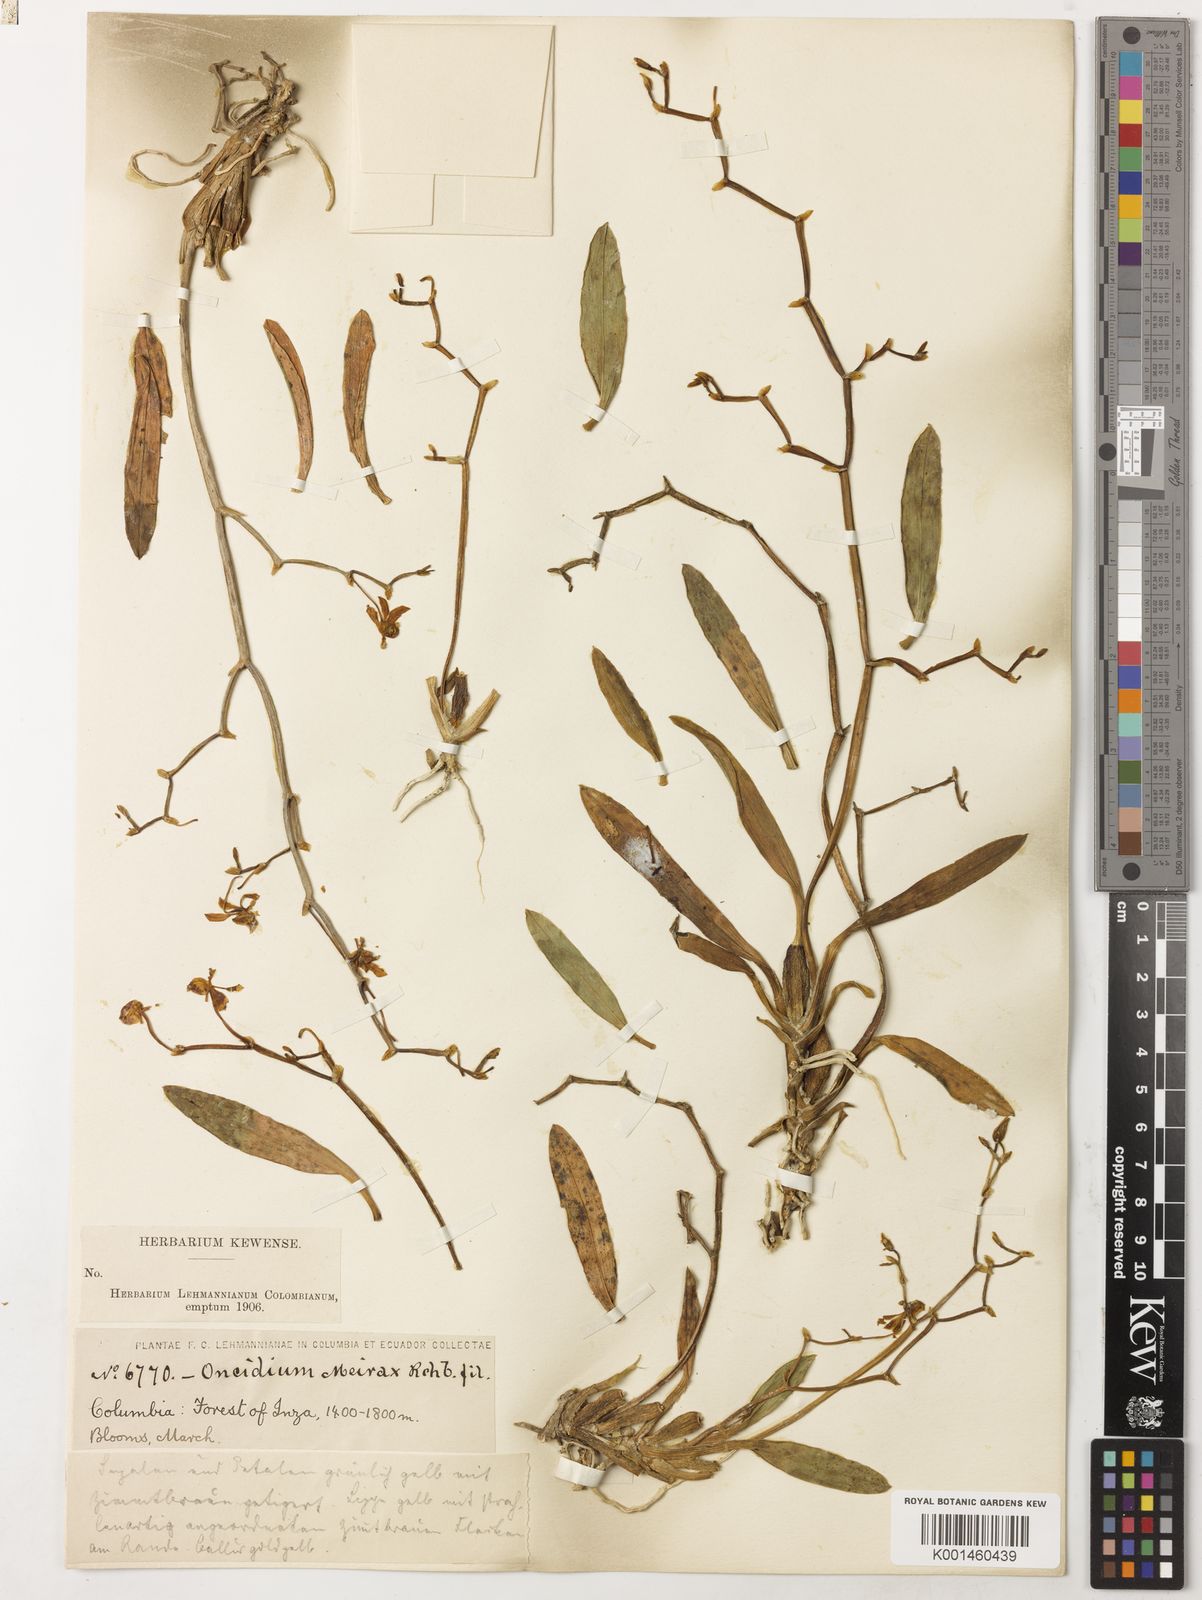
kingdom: Plantae
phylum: Tracheophyta
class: Liliopsida
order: Asparagales
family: Orchidaceae
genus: Cyrtochilum
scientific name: Cyrtochilum
